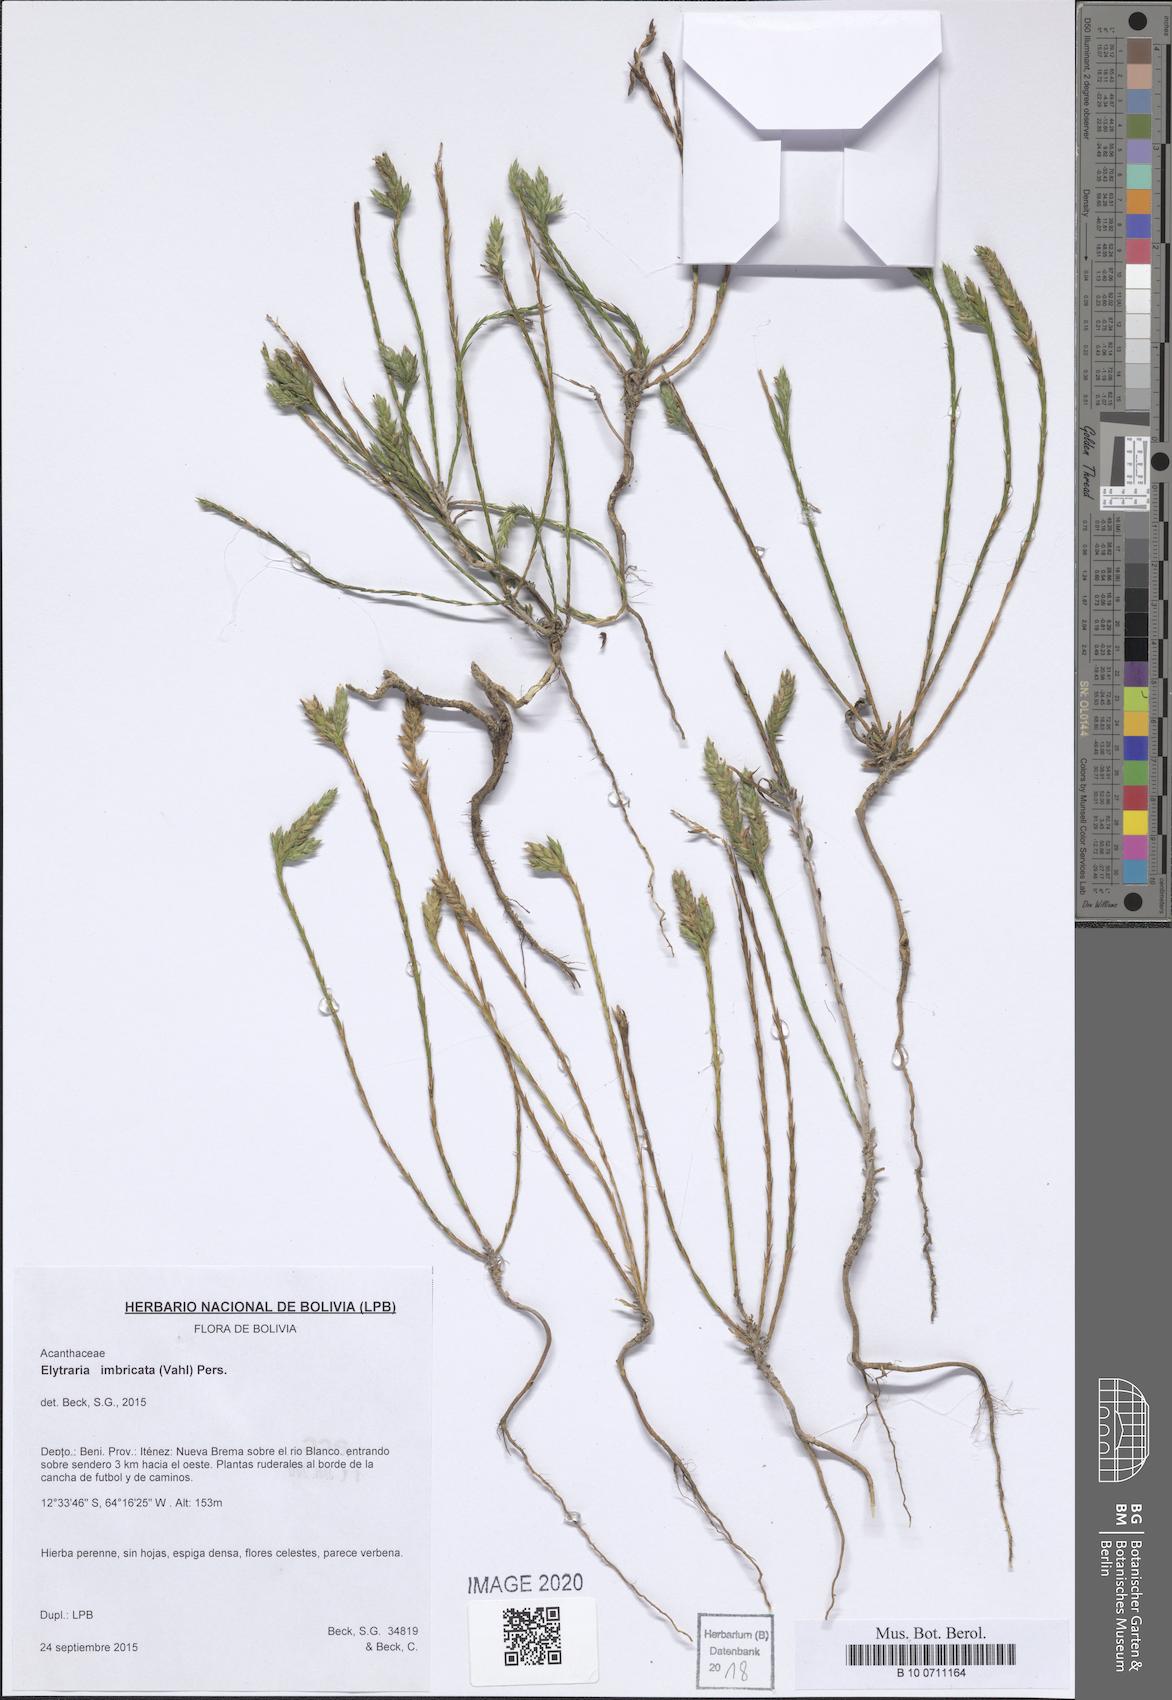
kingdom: Plantae
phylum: Tracheophyta
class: Magnoliopsida
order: Lamiales
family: Acanthaceae
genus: Elytraria
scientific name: Elytraria imbricata
